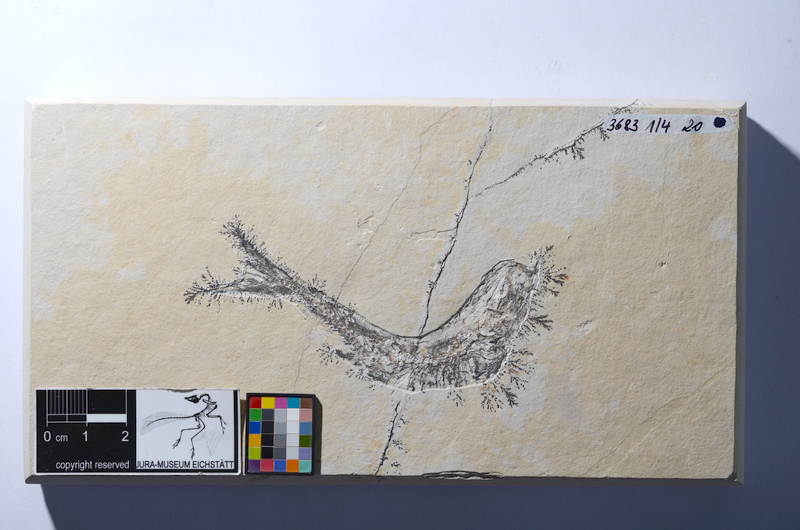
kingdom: Animalia
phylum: Chordata
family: Ascalaboidae
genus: Tharsis
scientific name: Tharsis dubius
